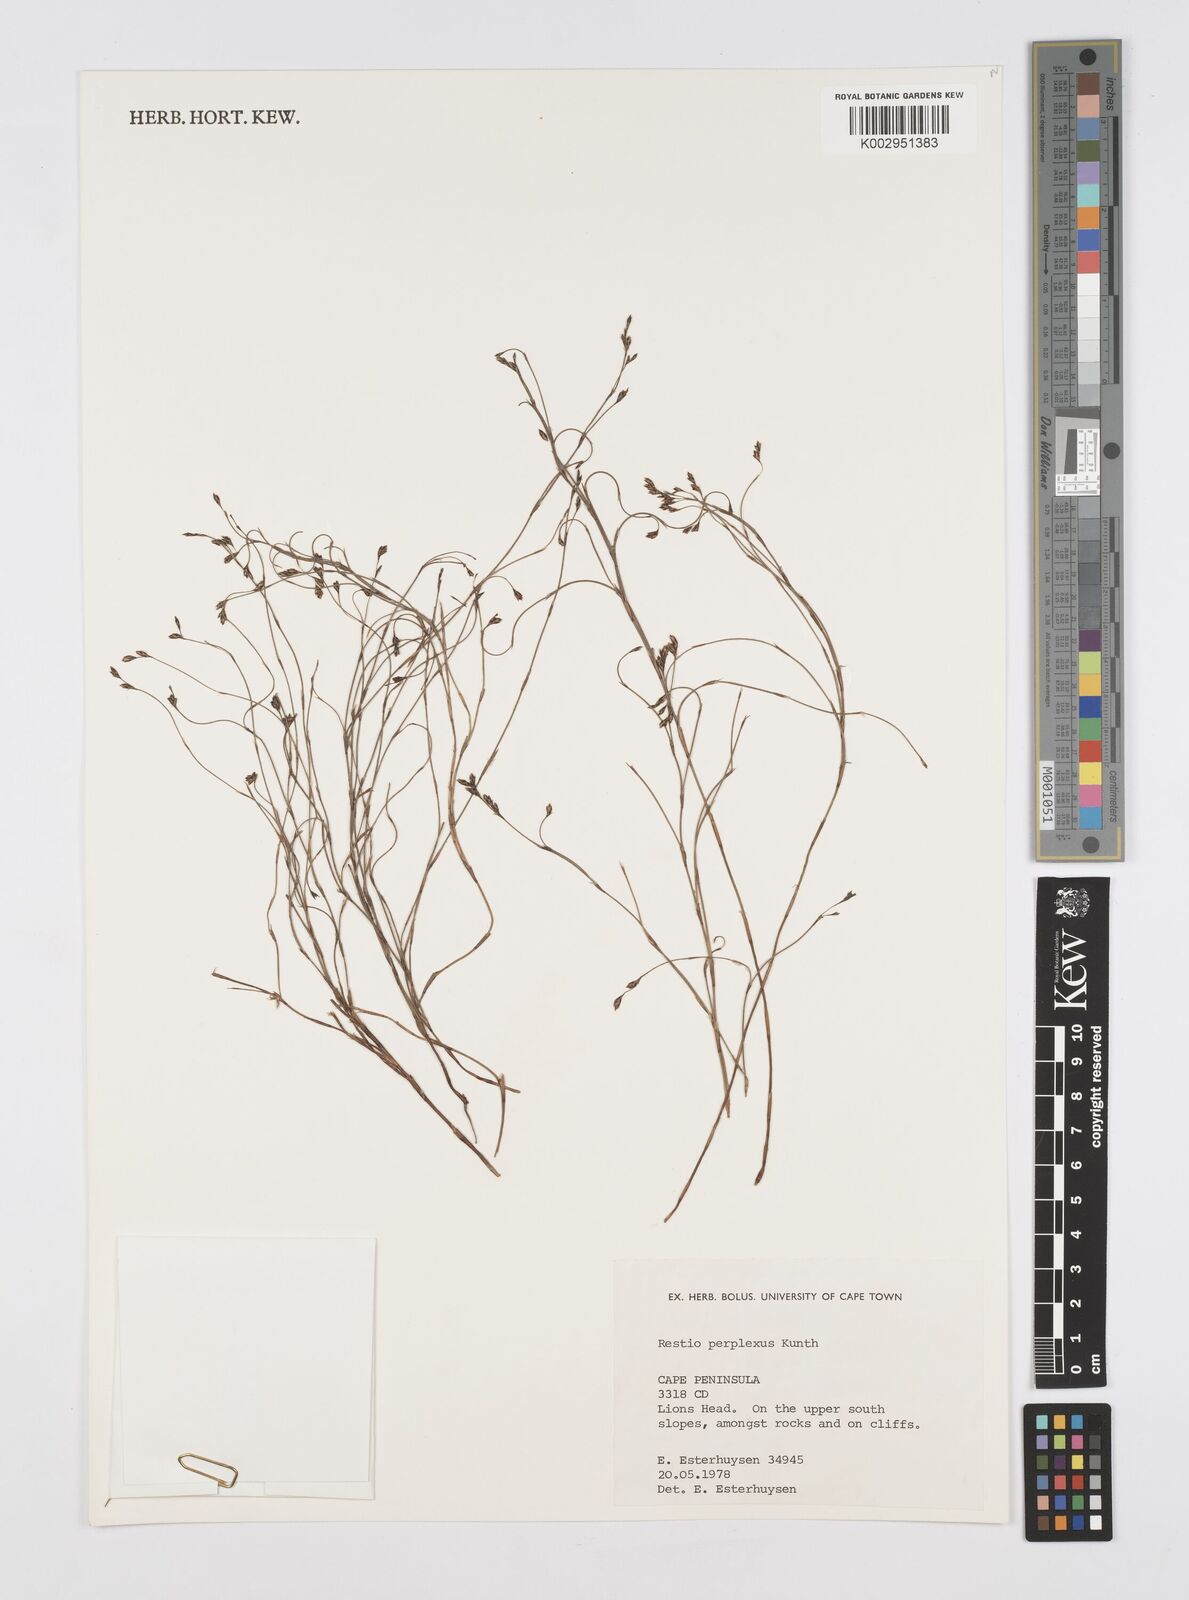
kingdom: Plantae
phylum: Tracheophyta
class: Liliopsida
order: Poales
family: Restionaceae
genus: Restio
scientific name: Restio perplexus
